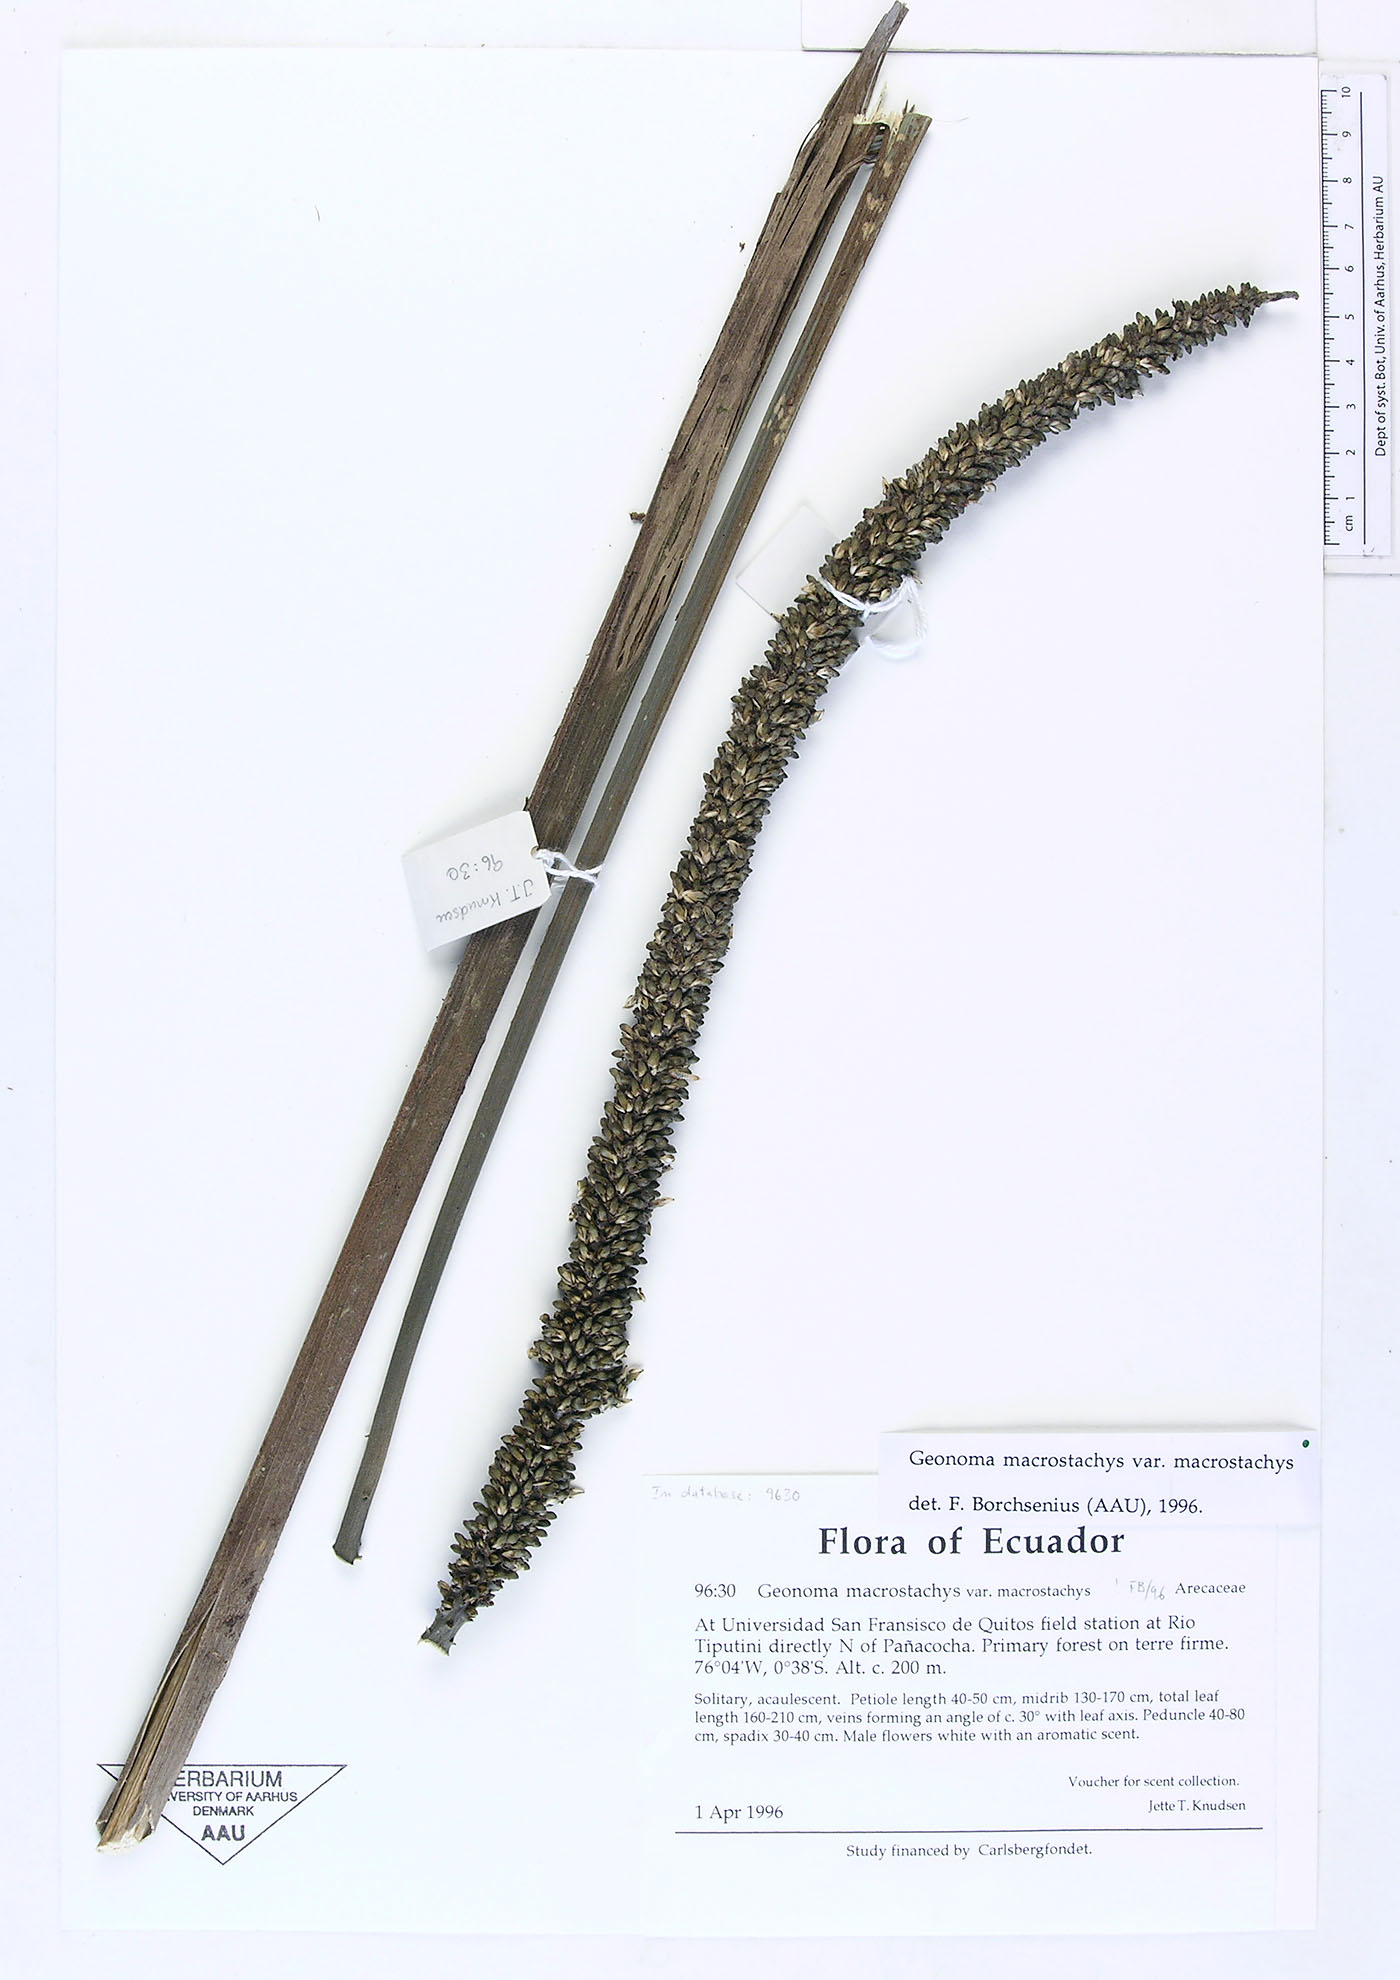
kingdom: Plantae
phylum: Tracheophyta
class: Liliopsida
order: Arecales
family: Arecaceae
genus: Geonoma
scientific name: Geonoma macrostachys
